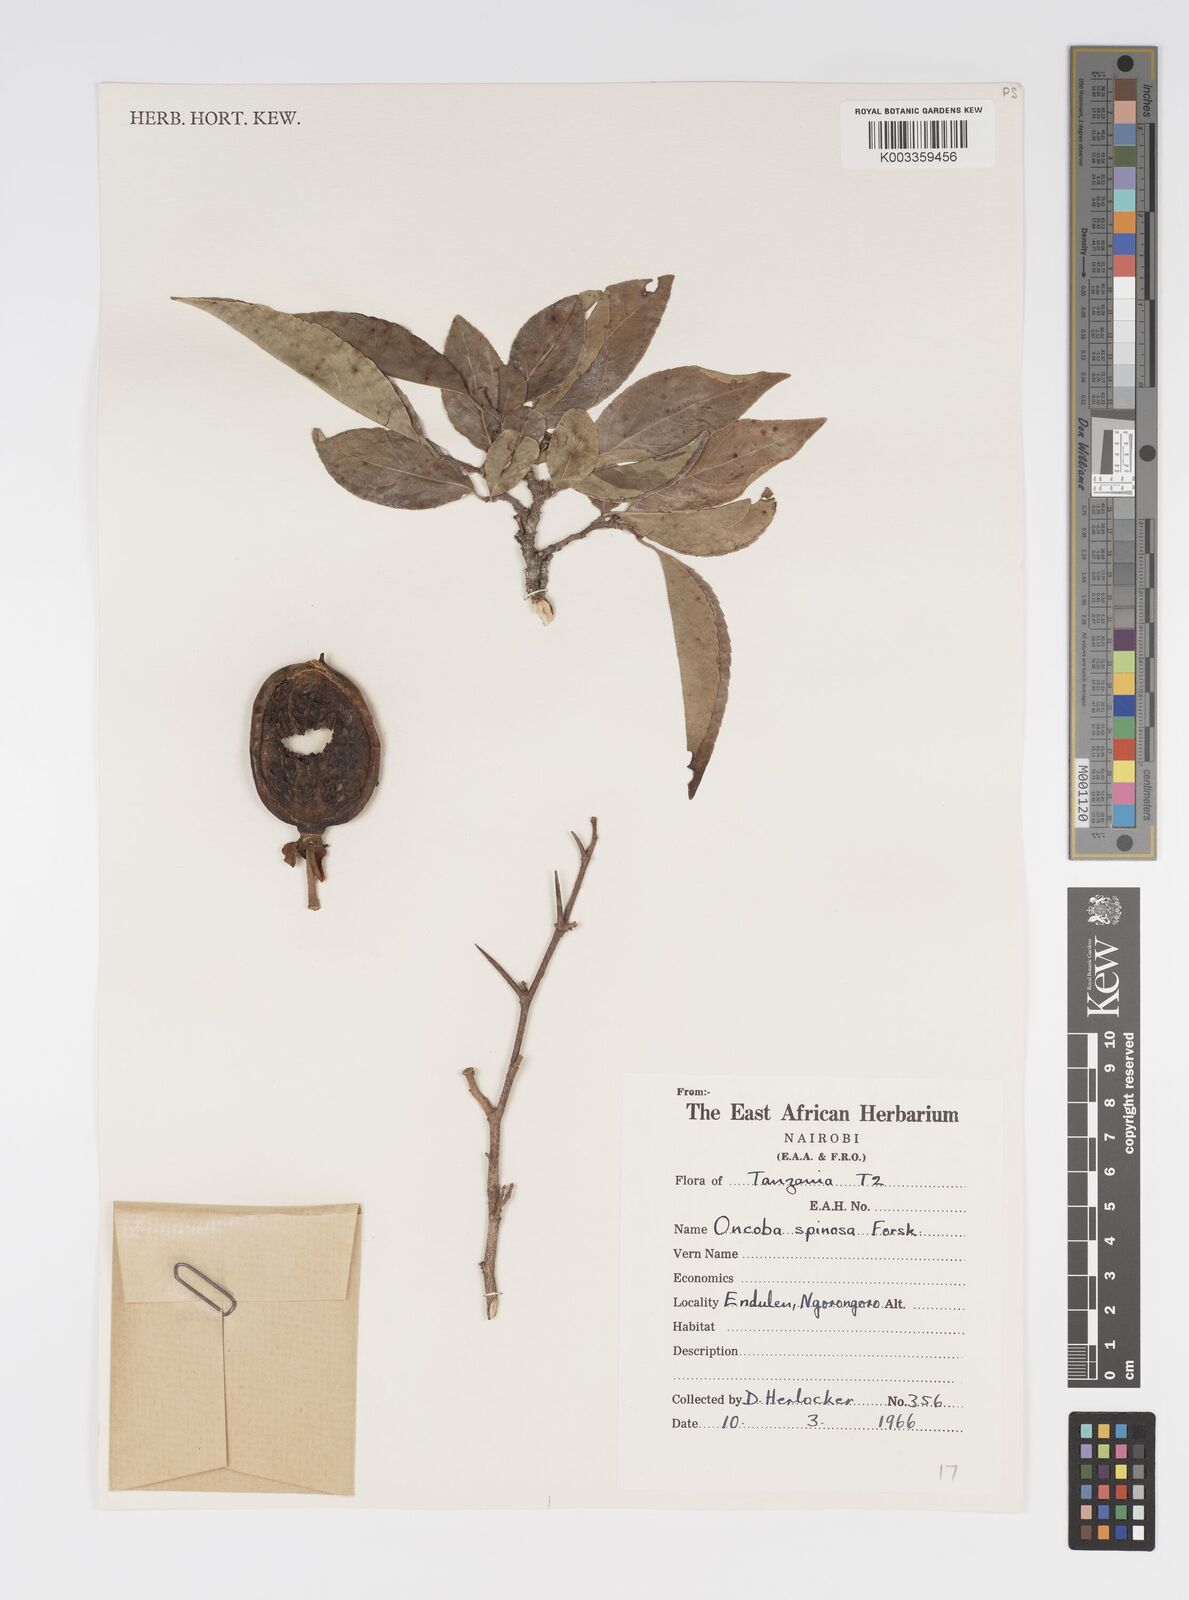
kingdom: Plantae
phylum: Tracheophyta
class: Magnoliopsida
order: Malpighiales
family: Salicaceae
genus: Oncoba
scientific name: Oncoba spinosa
